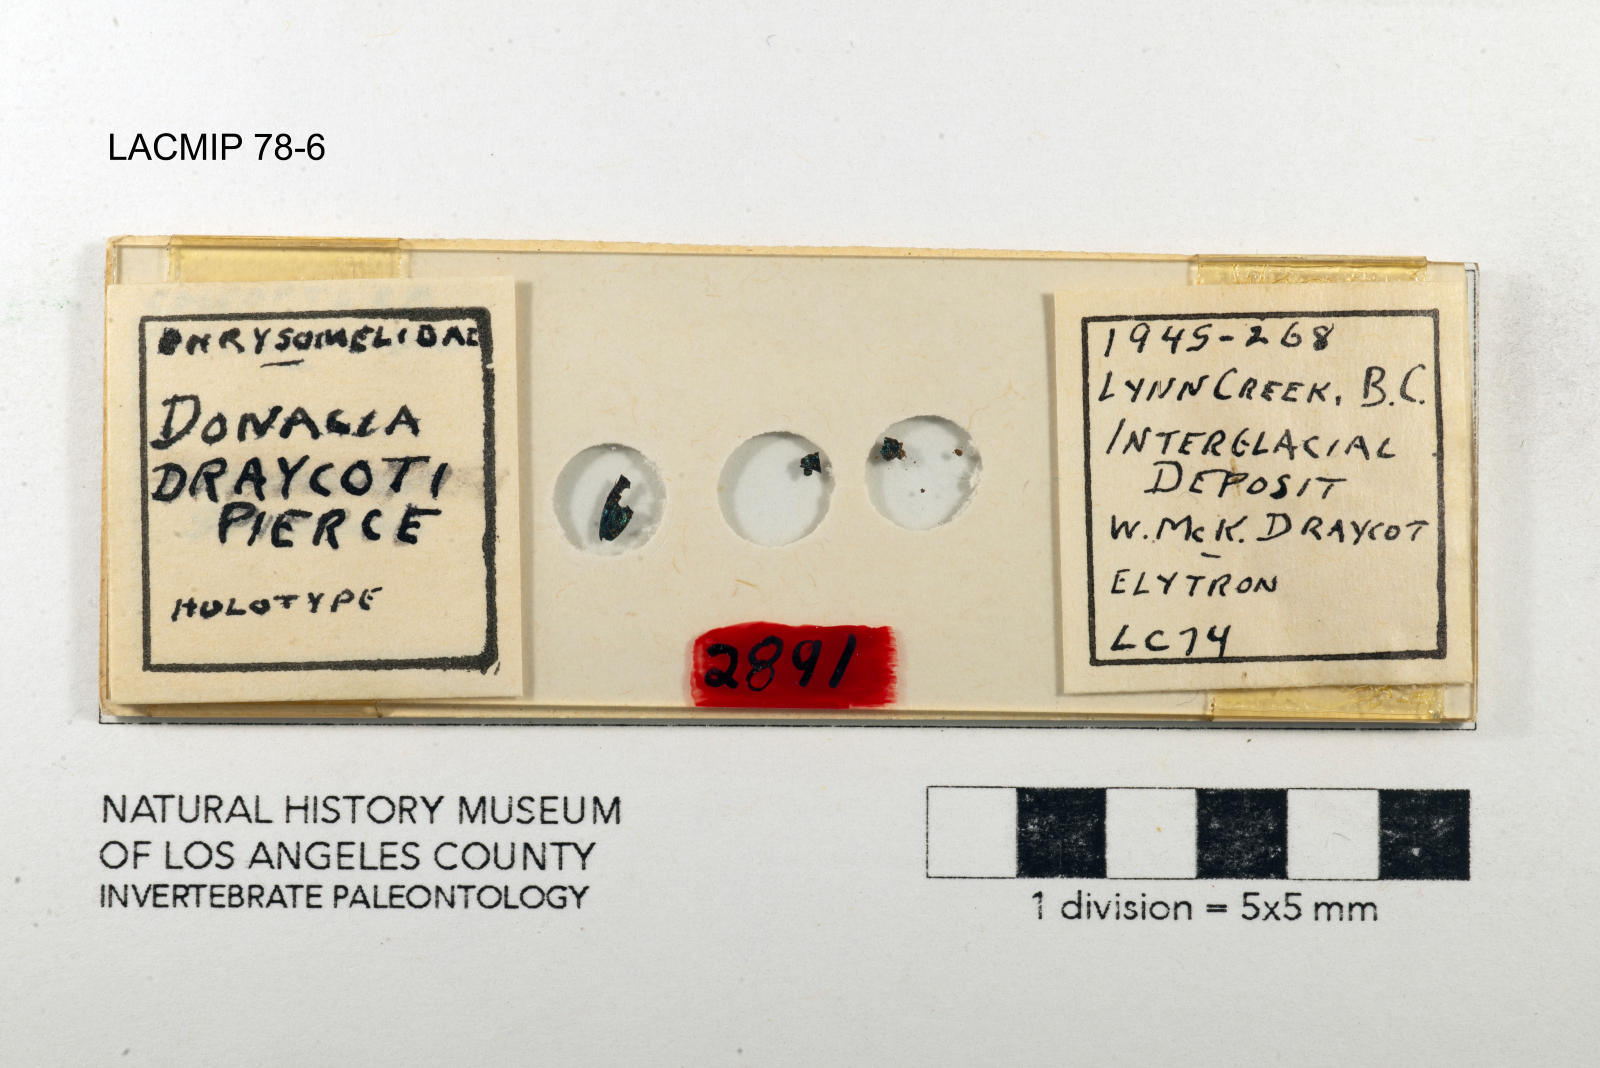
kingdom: Animalia
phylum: Arthropoda
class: Insecta
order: Coleoptera
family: Chrysomelidae
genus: Donacia
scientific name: Donacia draycoti
